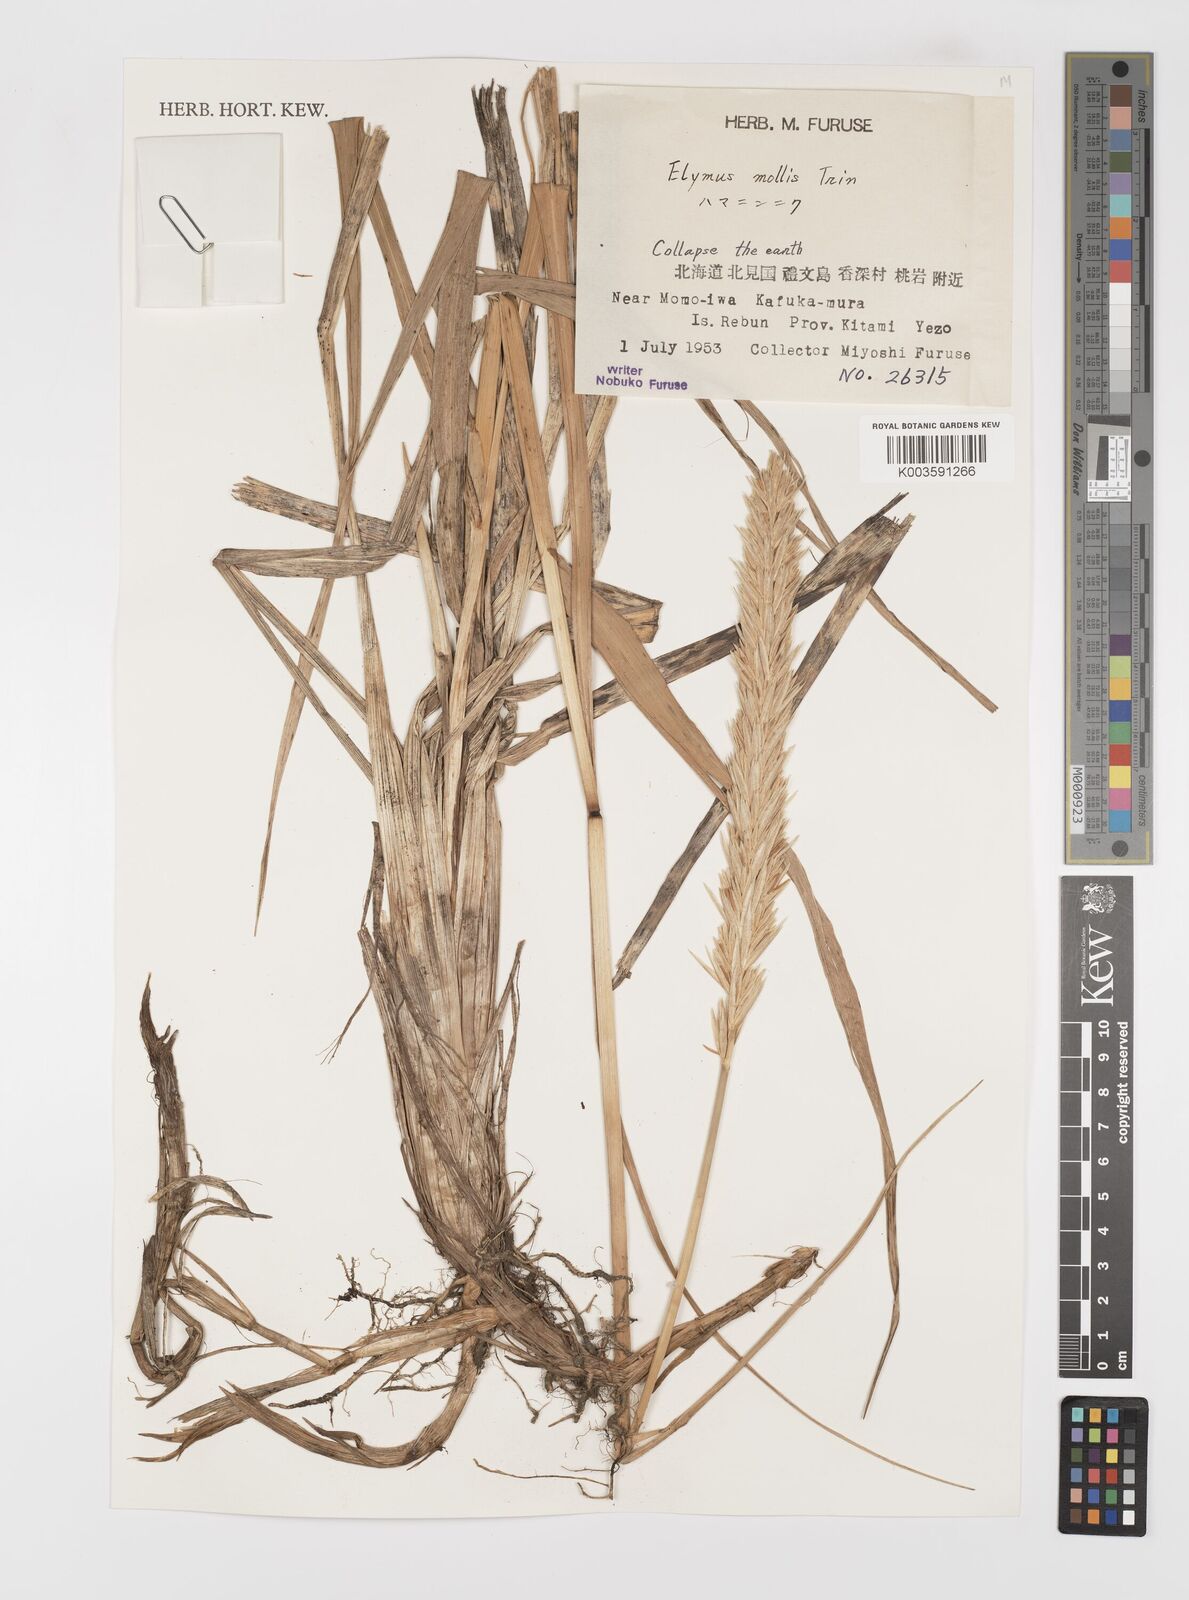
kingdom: Plantae
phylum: Tracheophyta
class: Liliopsida
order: Poales
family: Poaceae
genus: Leymus
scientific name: Leymus mollis
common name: American dune grass
